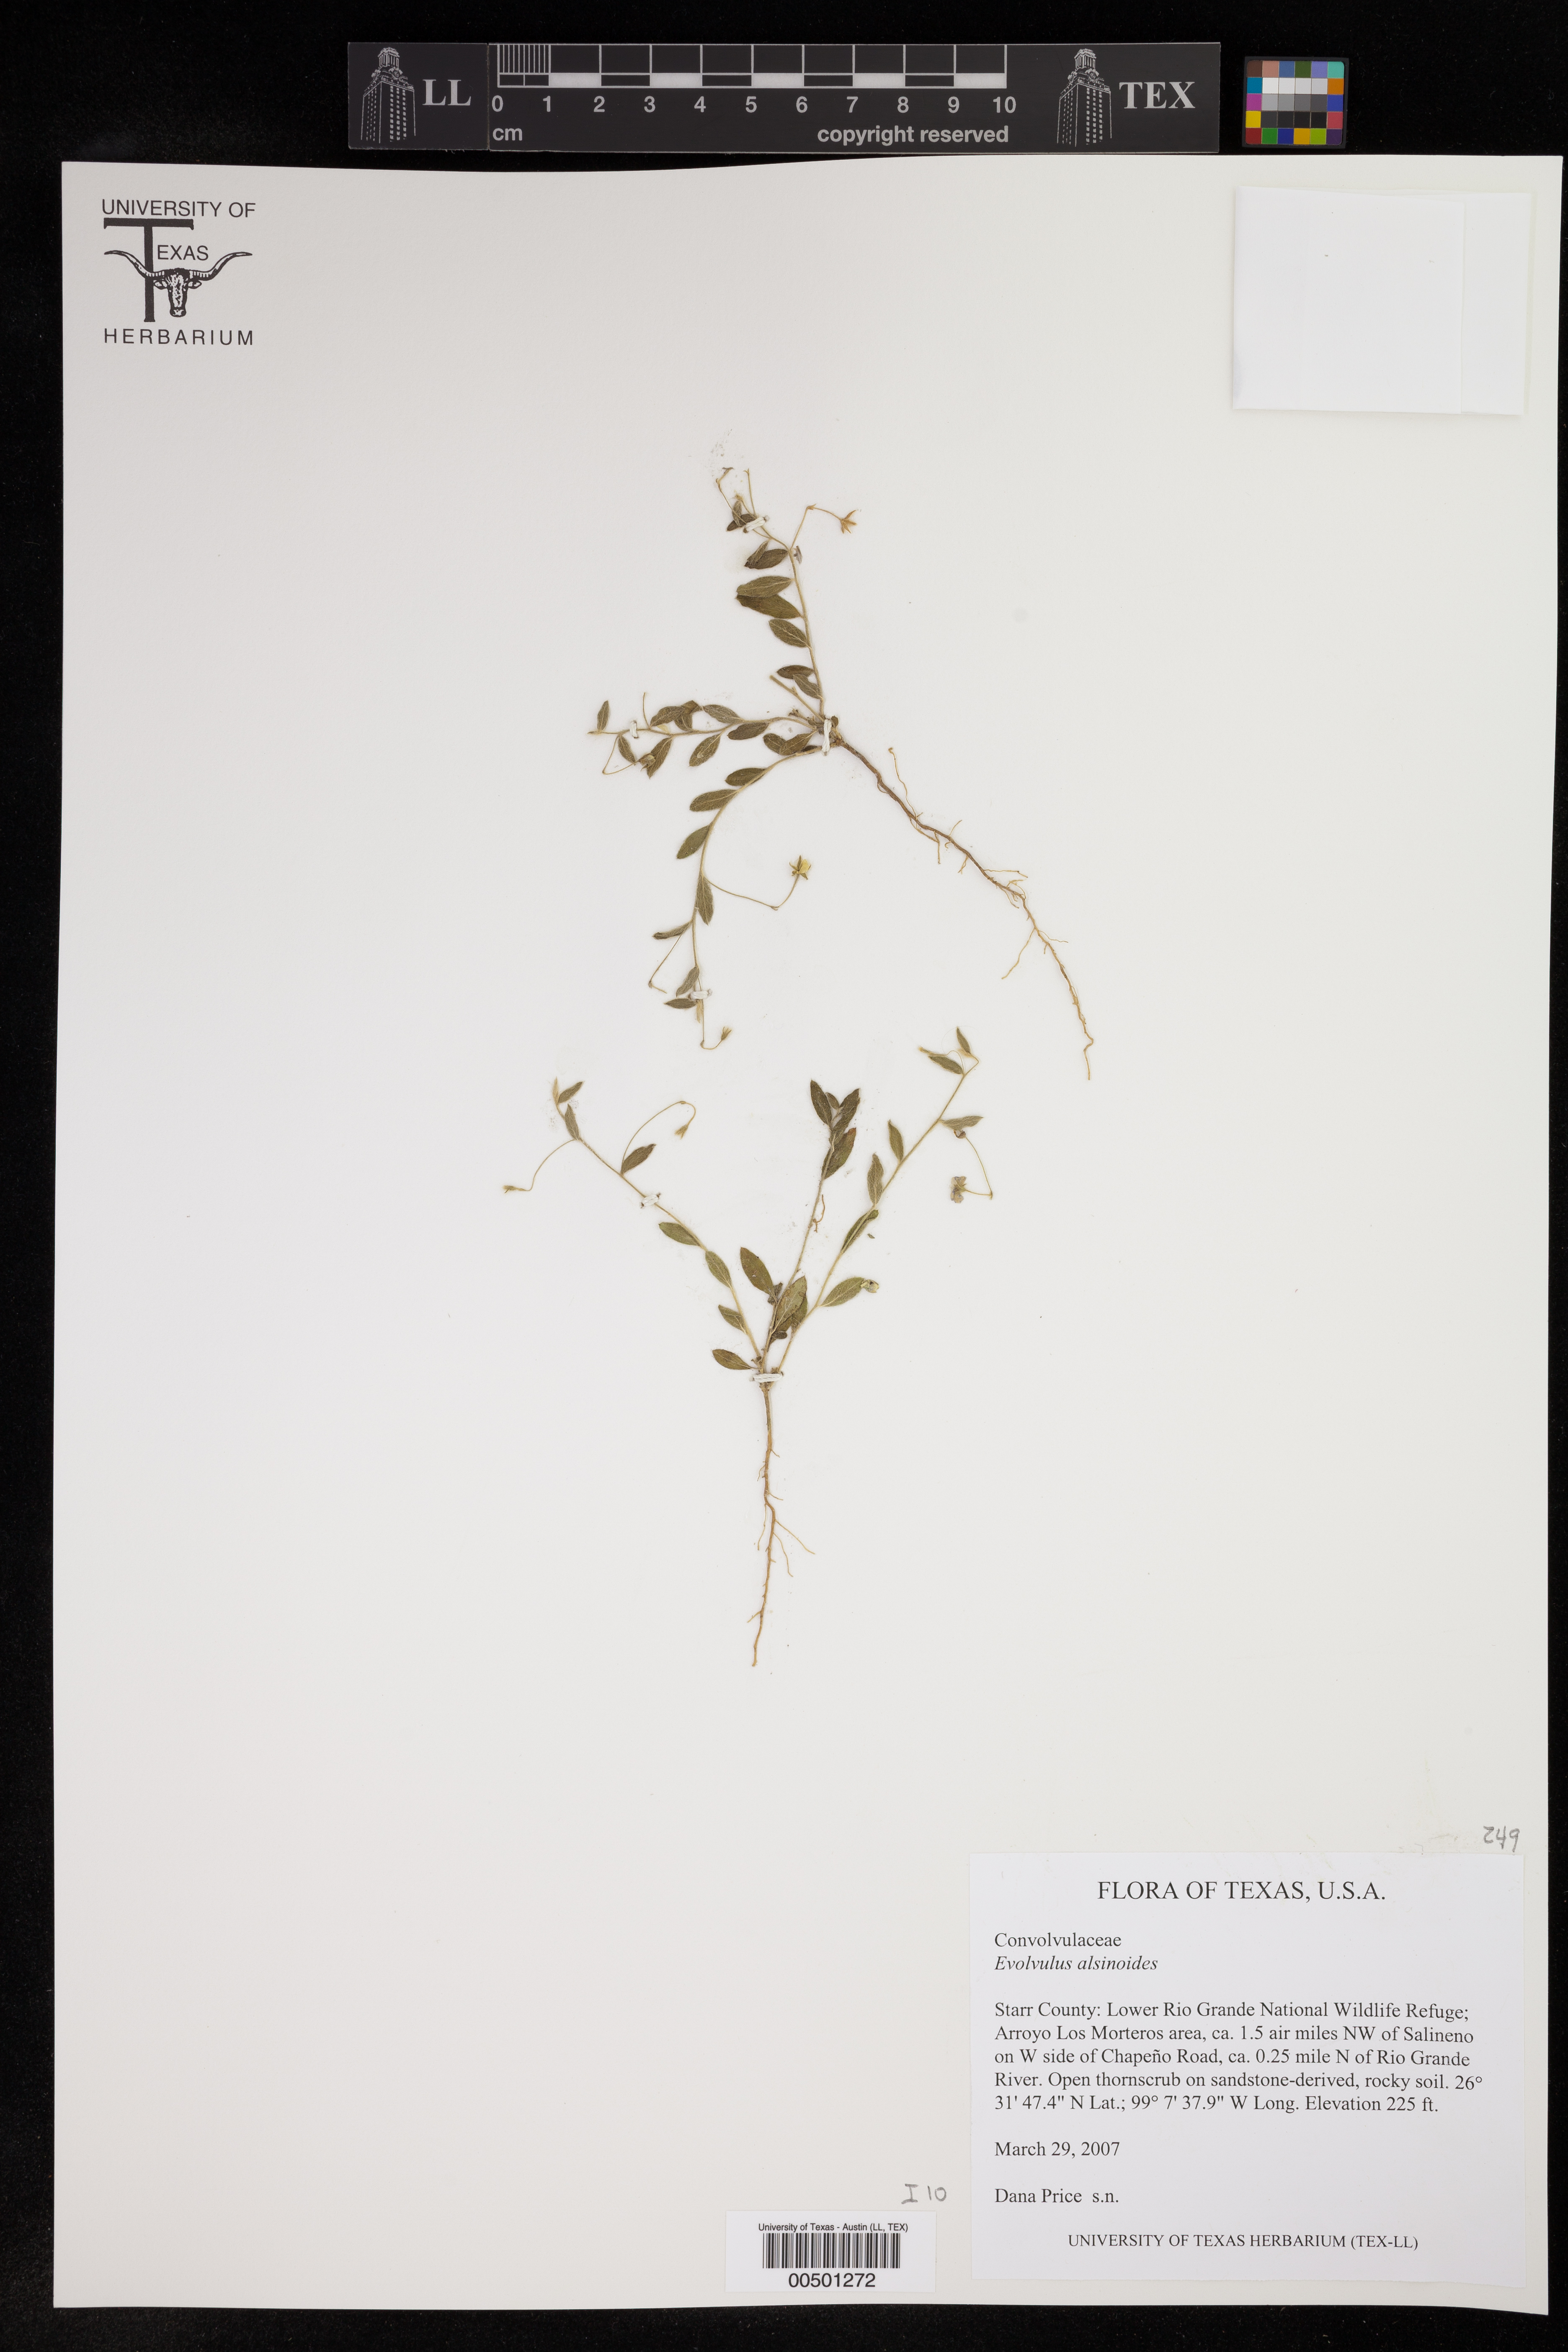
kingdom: Plantae
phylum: Tracheophyta
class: Magnoliopsida
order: Solanales
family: Convolvulaceae
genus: Evolvulus
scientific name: Evolvulus alsinoides
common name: Slender dwarf morning-glory
